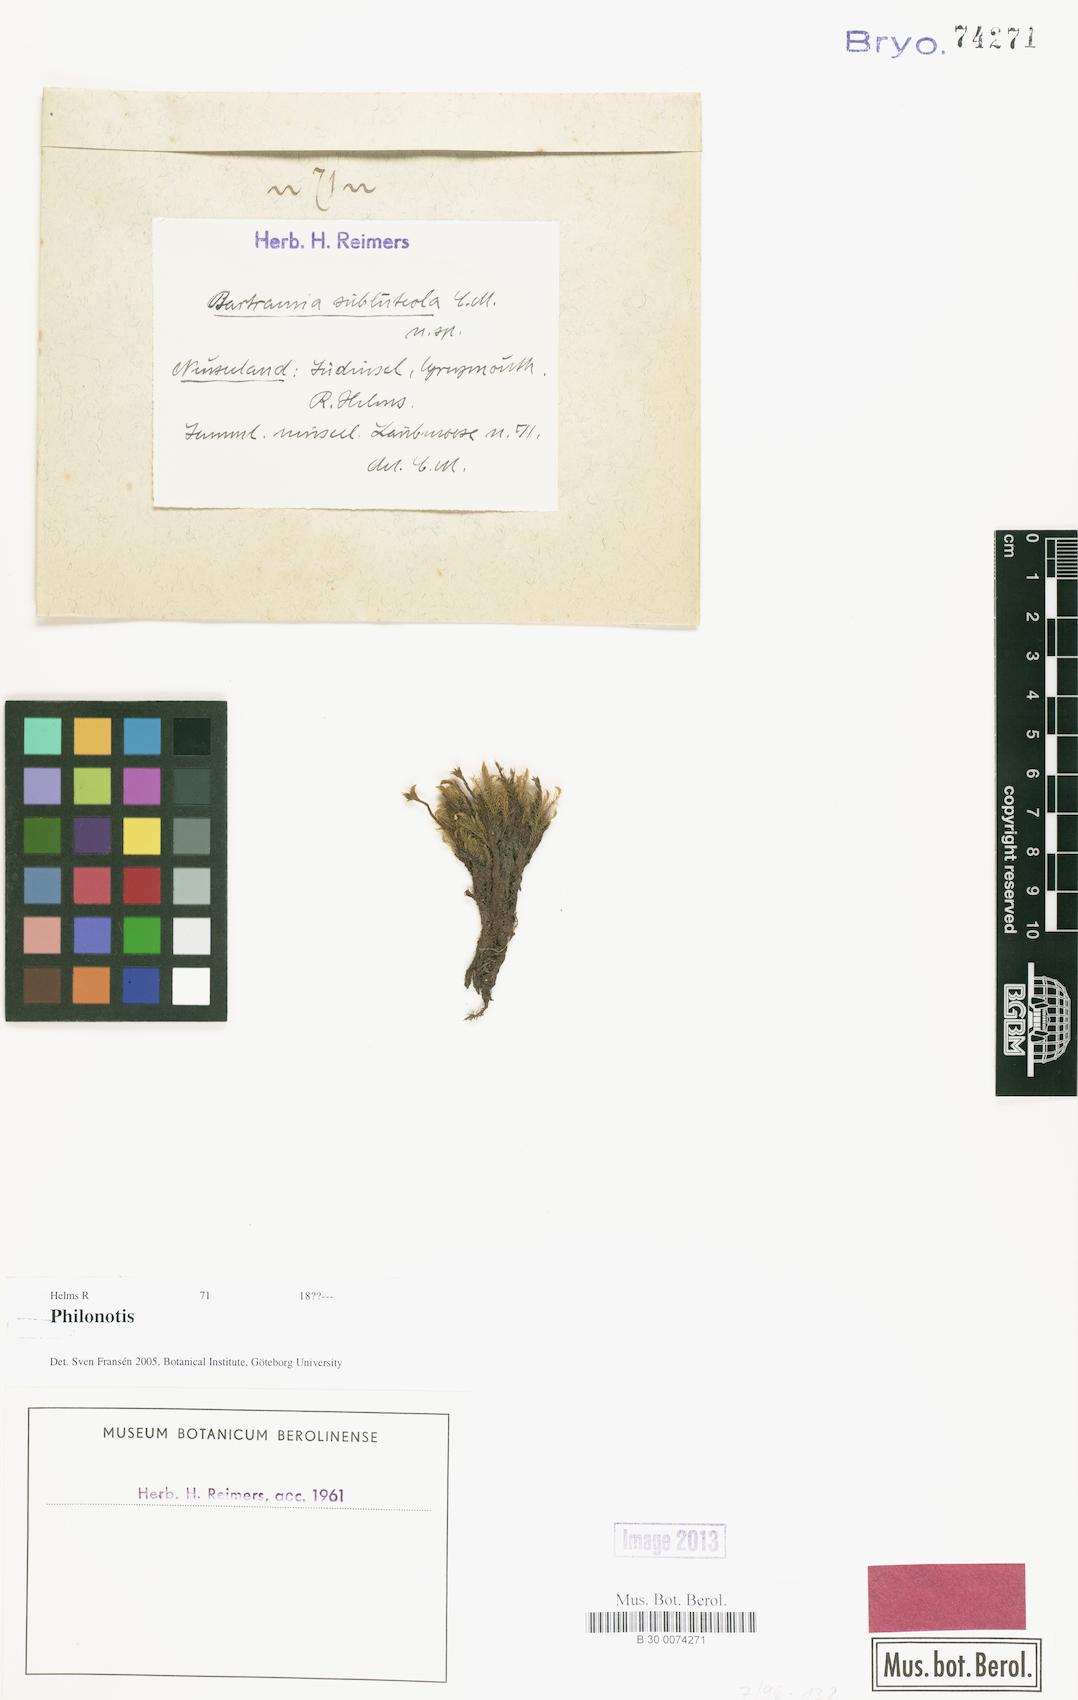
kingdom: Plantae
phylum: Bryophyta
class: Bryopsida
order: Bartramiales
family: Bartramiaceae
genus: Philonotis
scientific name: Philonotis
